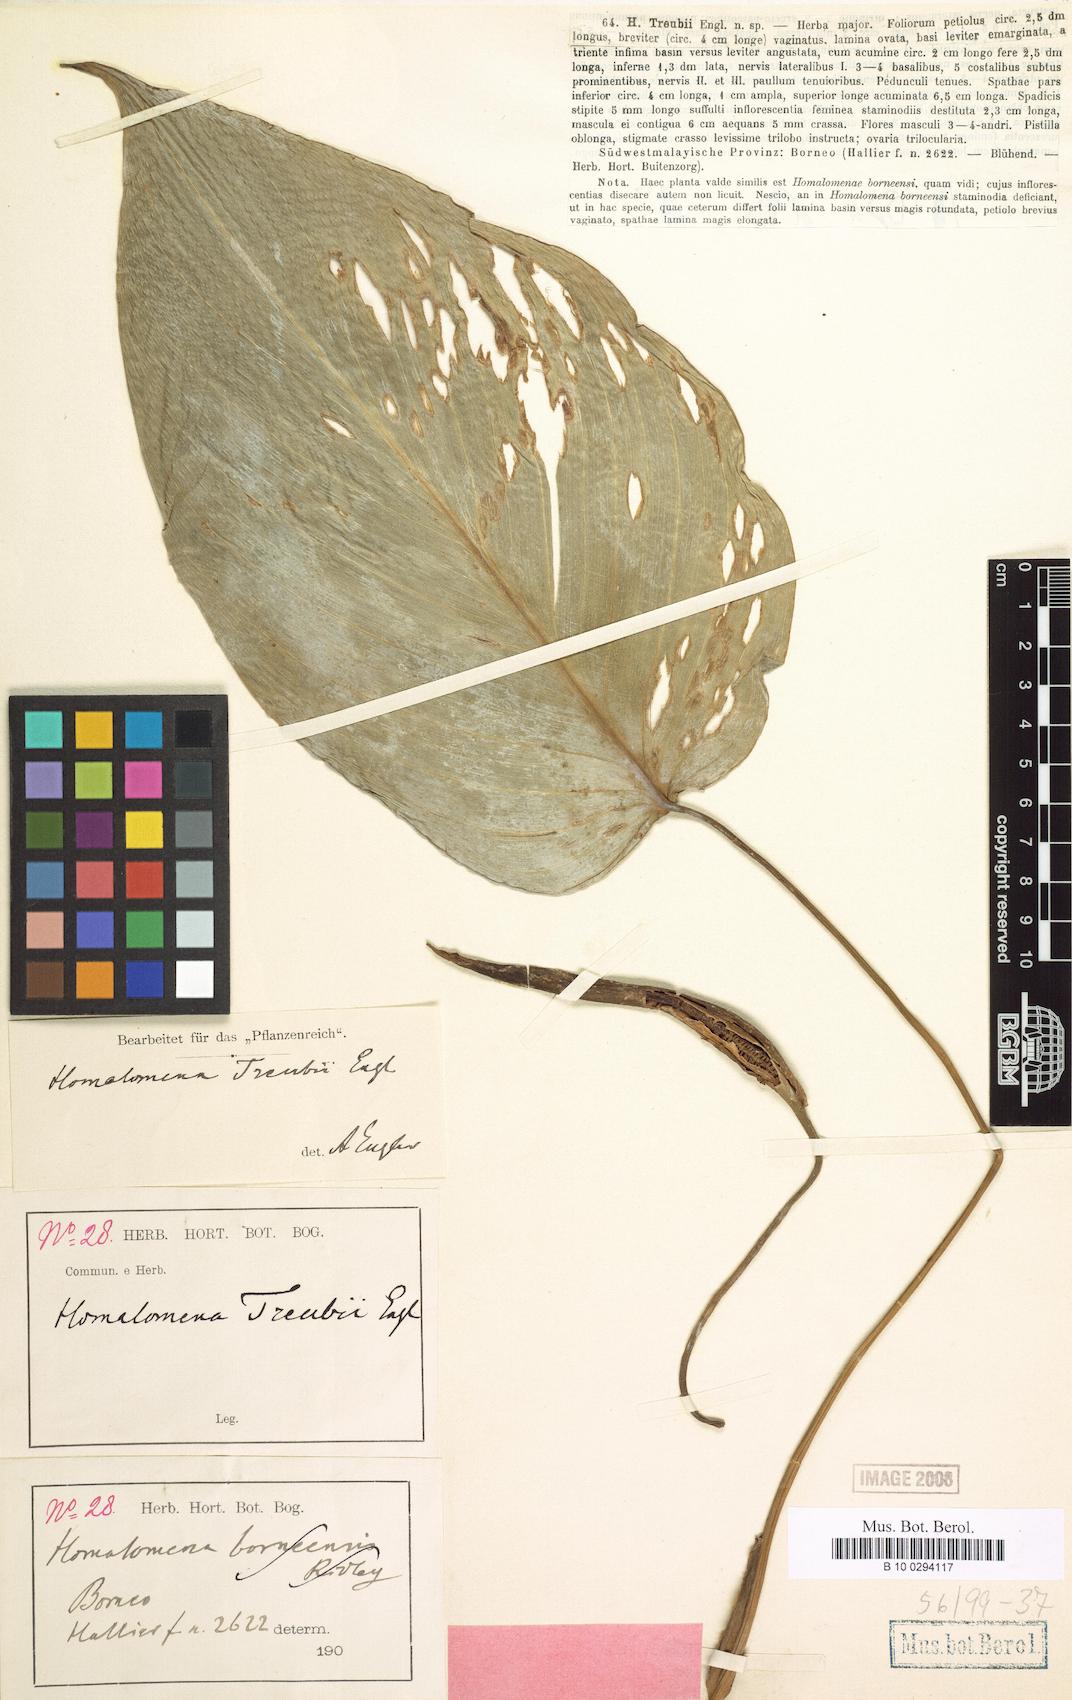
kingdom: Plantae
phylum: Tracheophyta
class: Liliopsida
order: Alismatales
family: Araceae
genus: Homalomena
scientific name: Homalomena treubii
